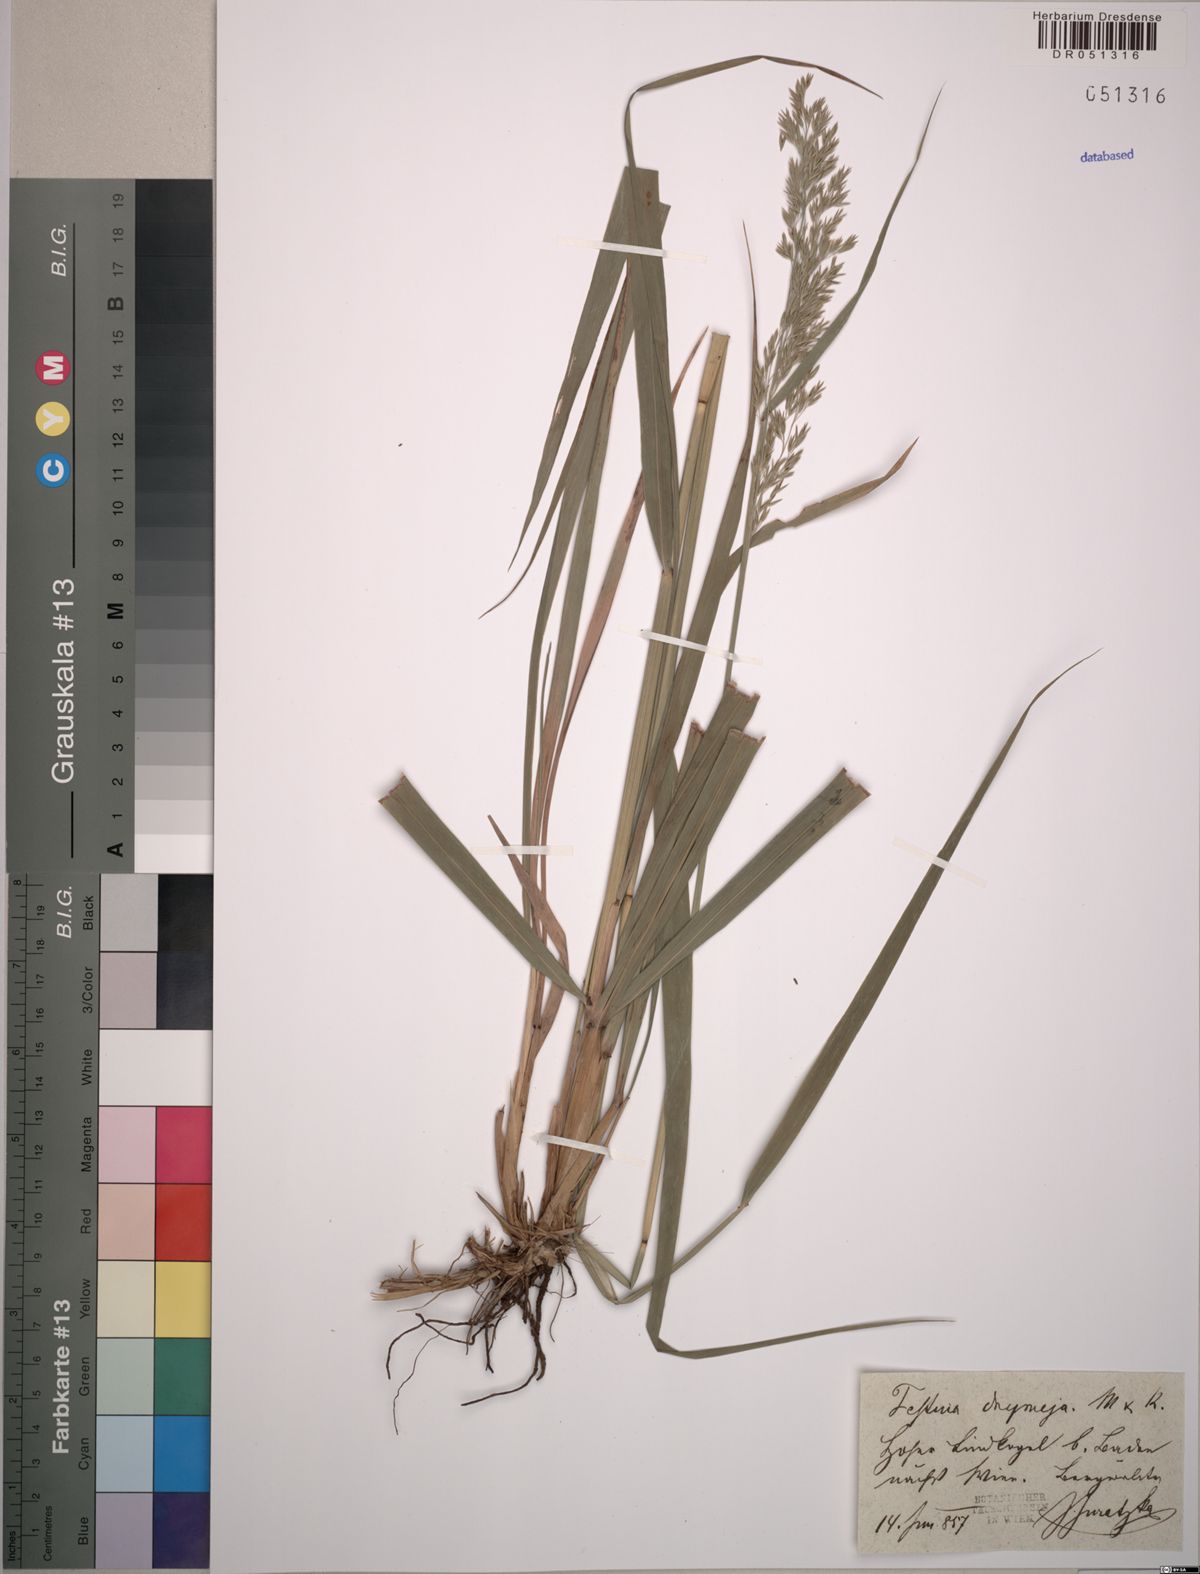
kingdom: Plantae
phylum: Tracheophyta
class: Liliopsida
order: Poales
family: Poaceae
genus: Festuca
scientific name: Festuca drymeja
